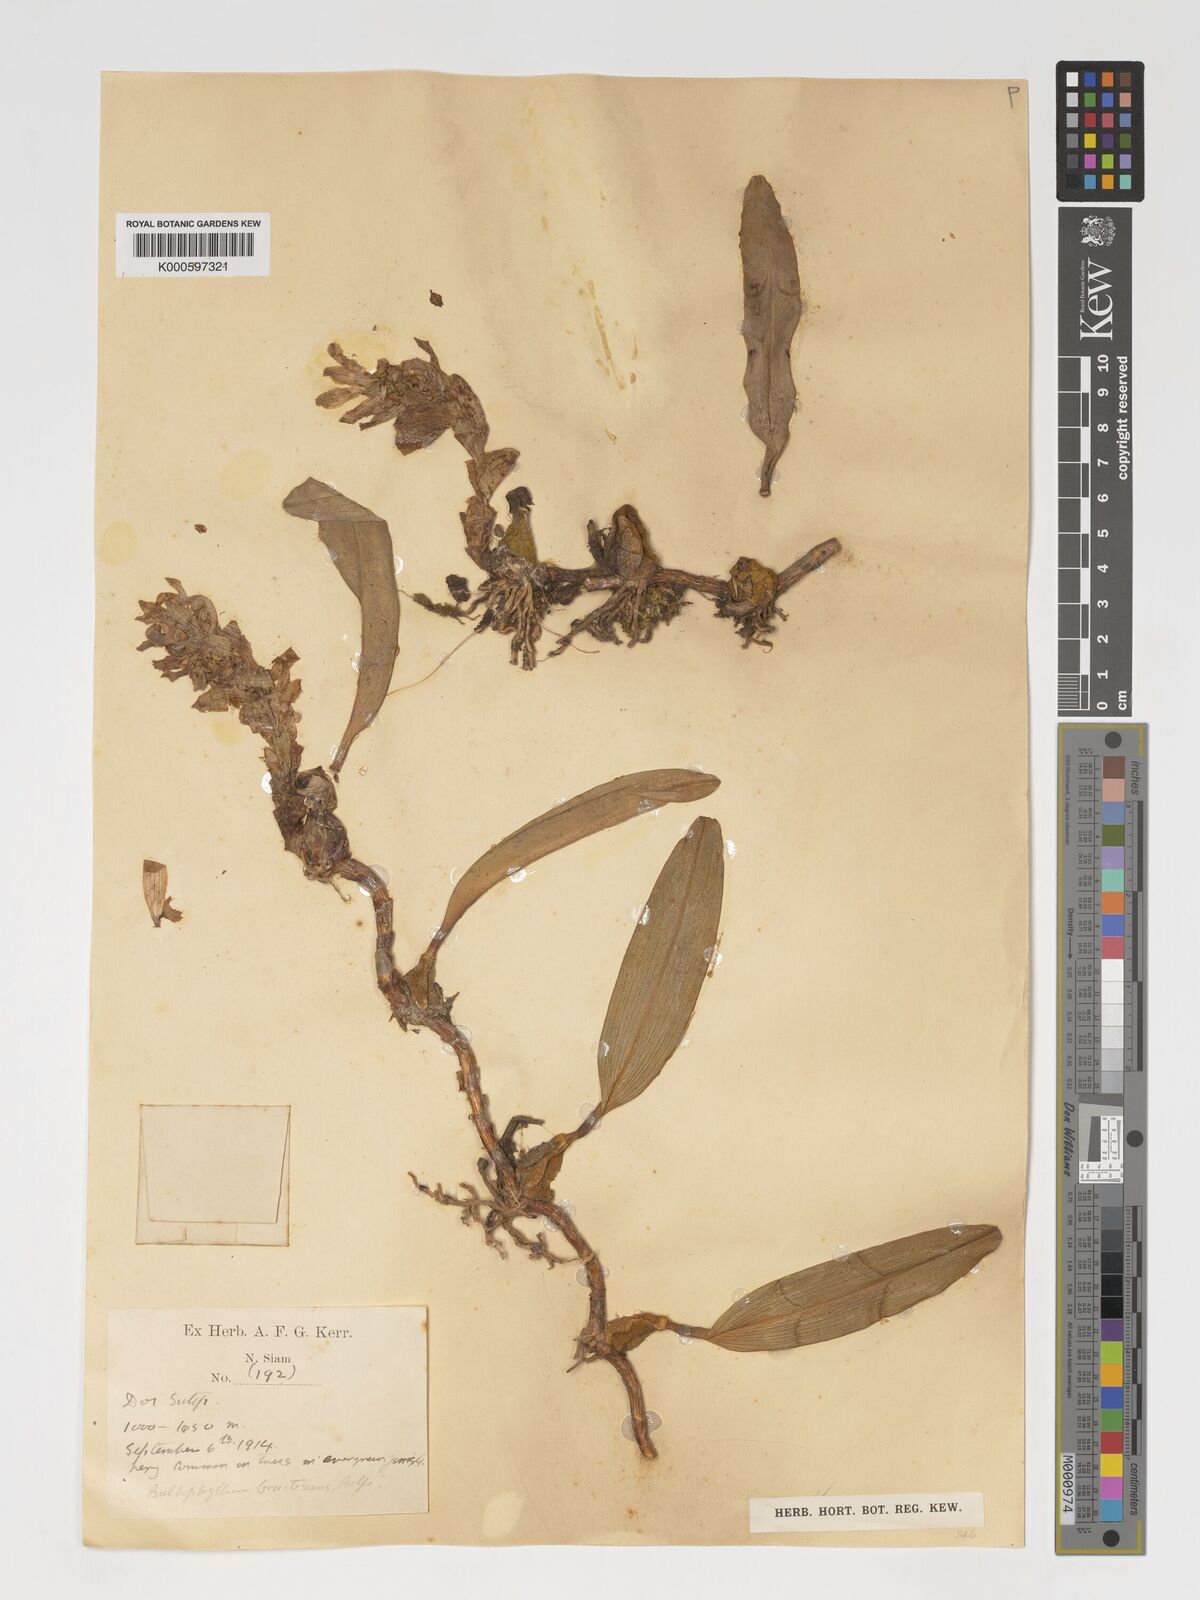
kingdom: Plantae
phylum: Tracheophyta
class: Liliopsida
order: Asparagales
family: Orchidaceae
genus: Bulbophyllum
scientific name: Bulbophyllum
